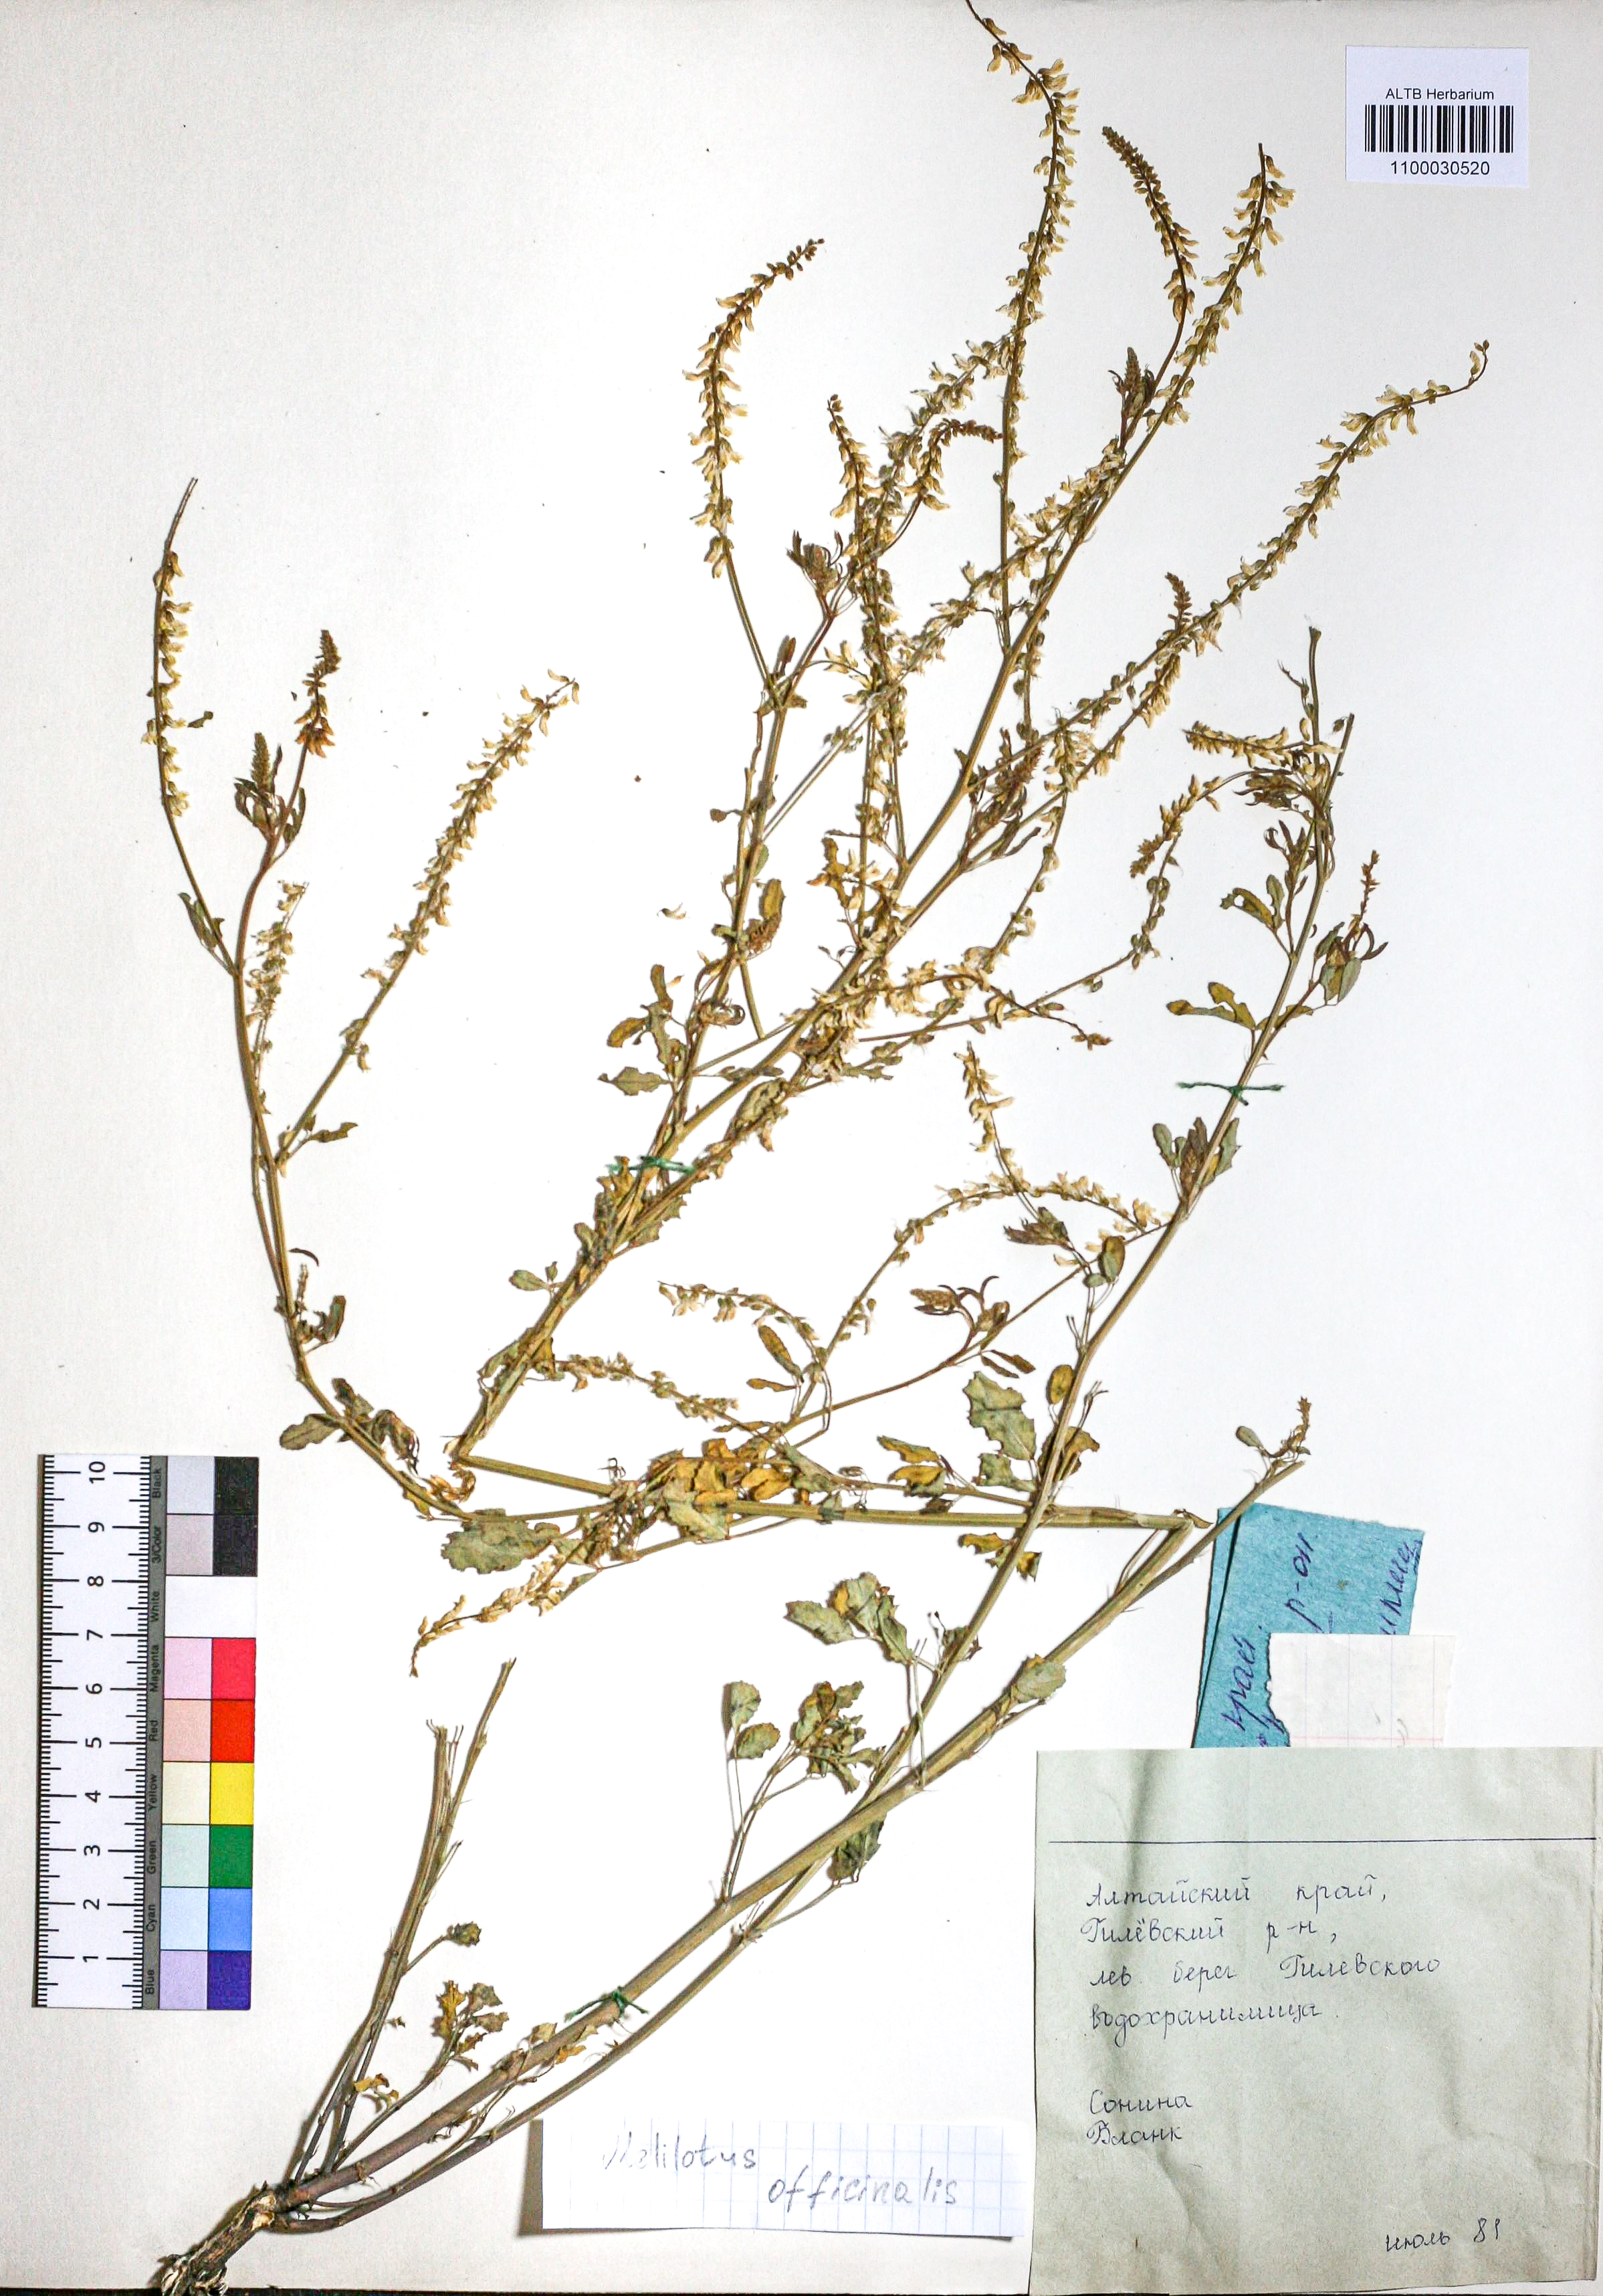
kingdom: Plantae
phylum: Tracheophyta
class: Magnoliopsida
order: Fabales
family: Fabaceae
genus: Melilotus
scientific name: Melilotus officinalis
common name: Sweetclover
